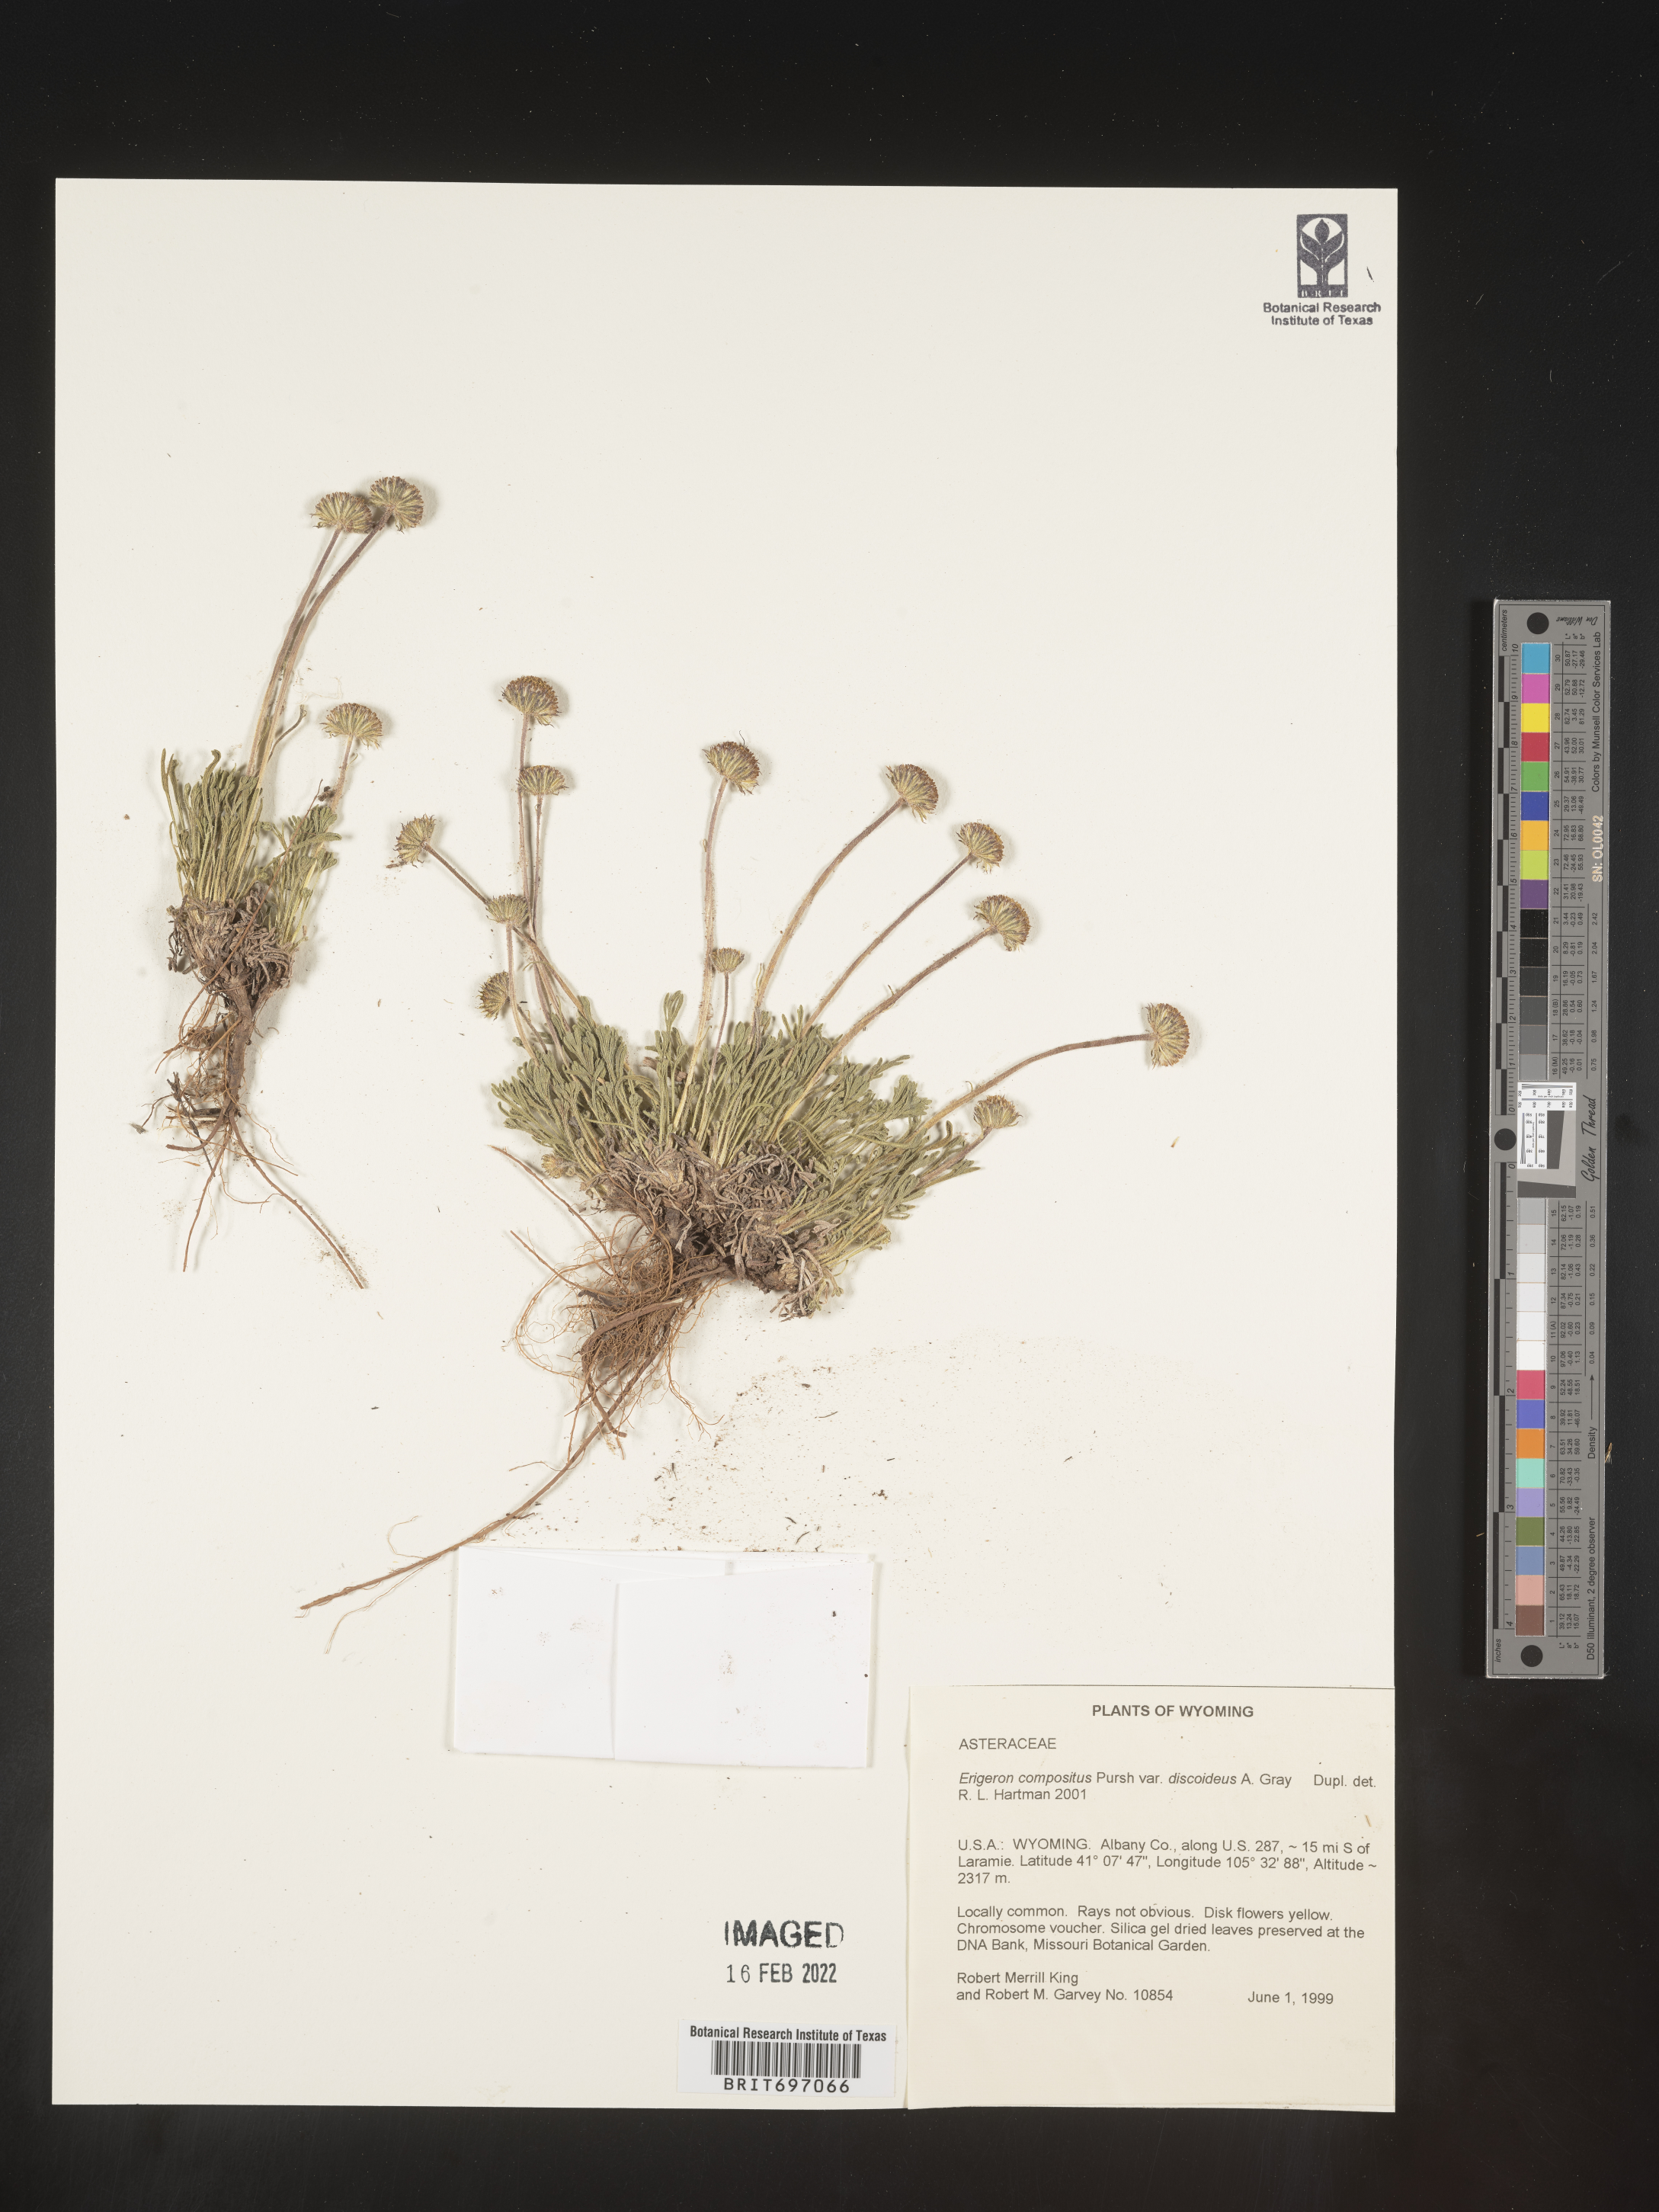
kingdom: Plantae
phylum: Tracheophyta
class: Magnoliopsida
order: Asterales
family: Asteraceae
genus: Erigeron
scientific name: Erigeron compositus
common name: Dwarf mountain fleabane
